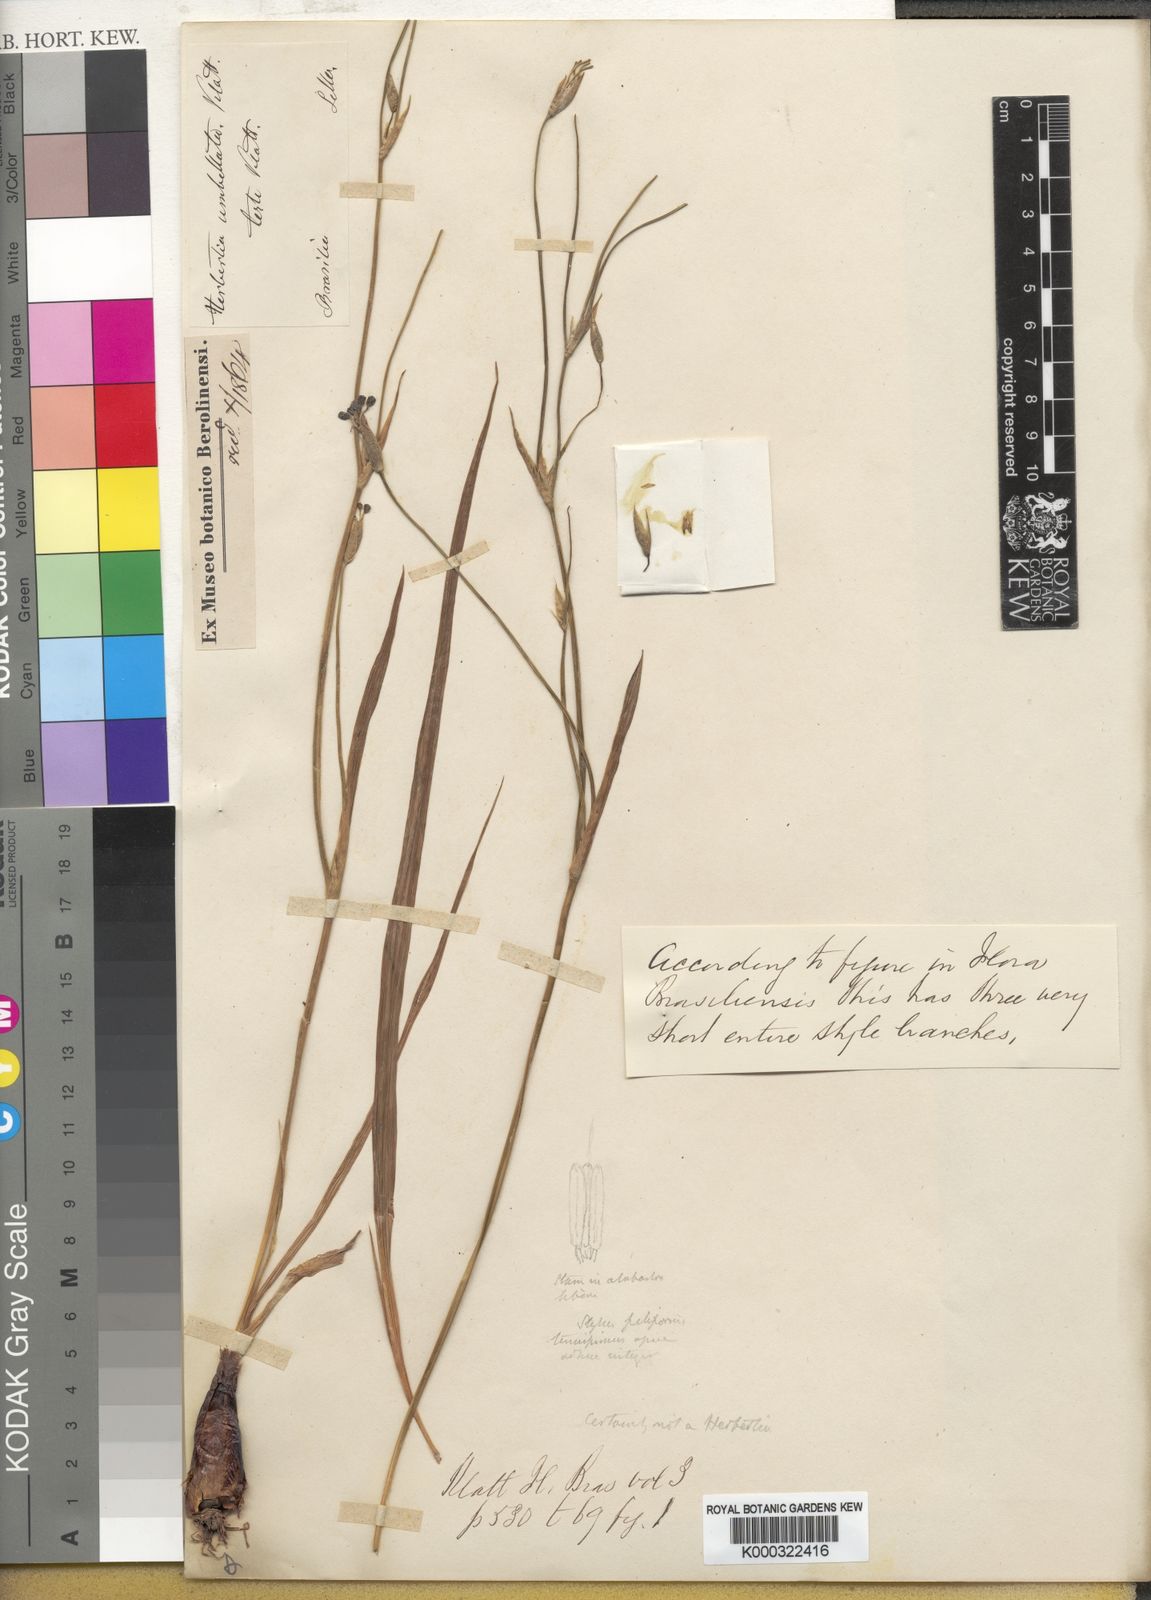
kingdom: Plantae
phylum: Tracheophyta
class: Liliopsida
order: Asparagales
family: Iridaceae
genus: Lethia
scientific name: Lethia umbellata
